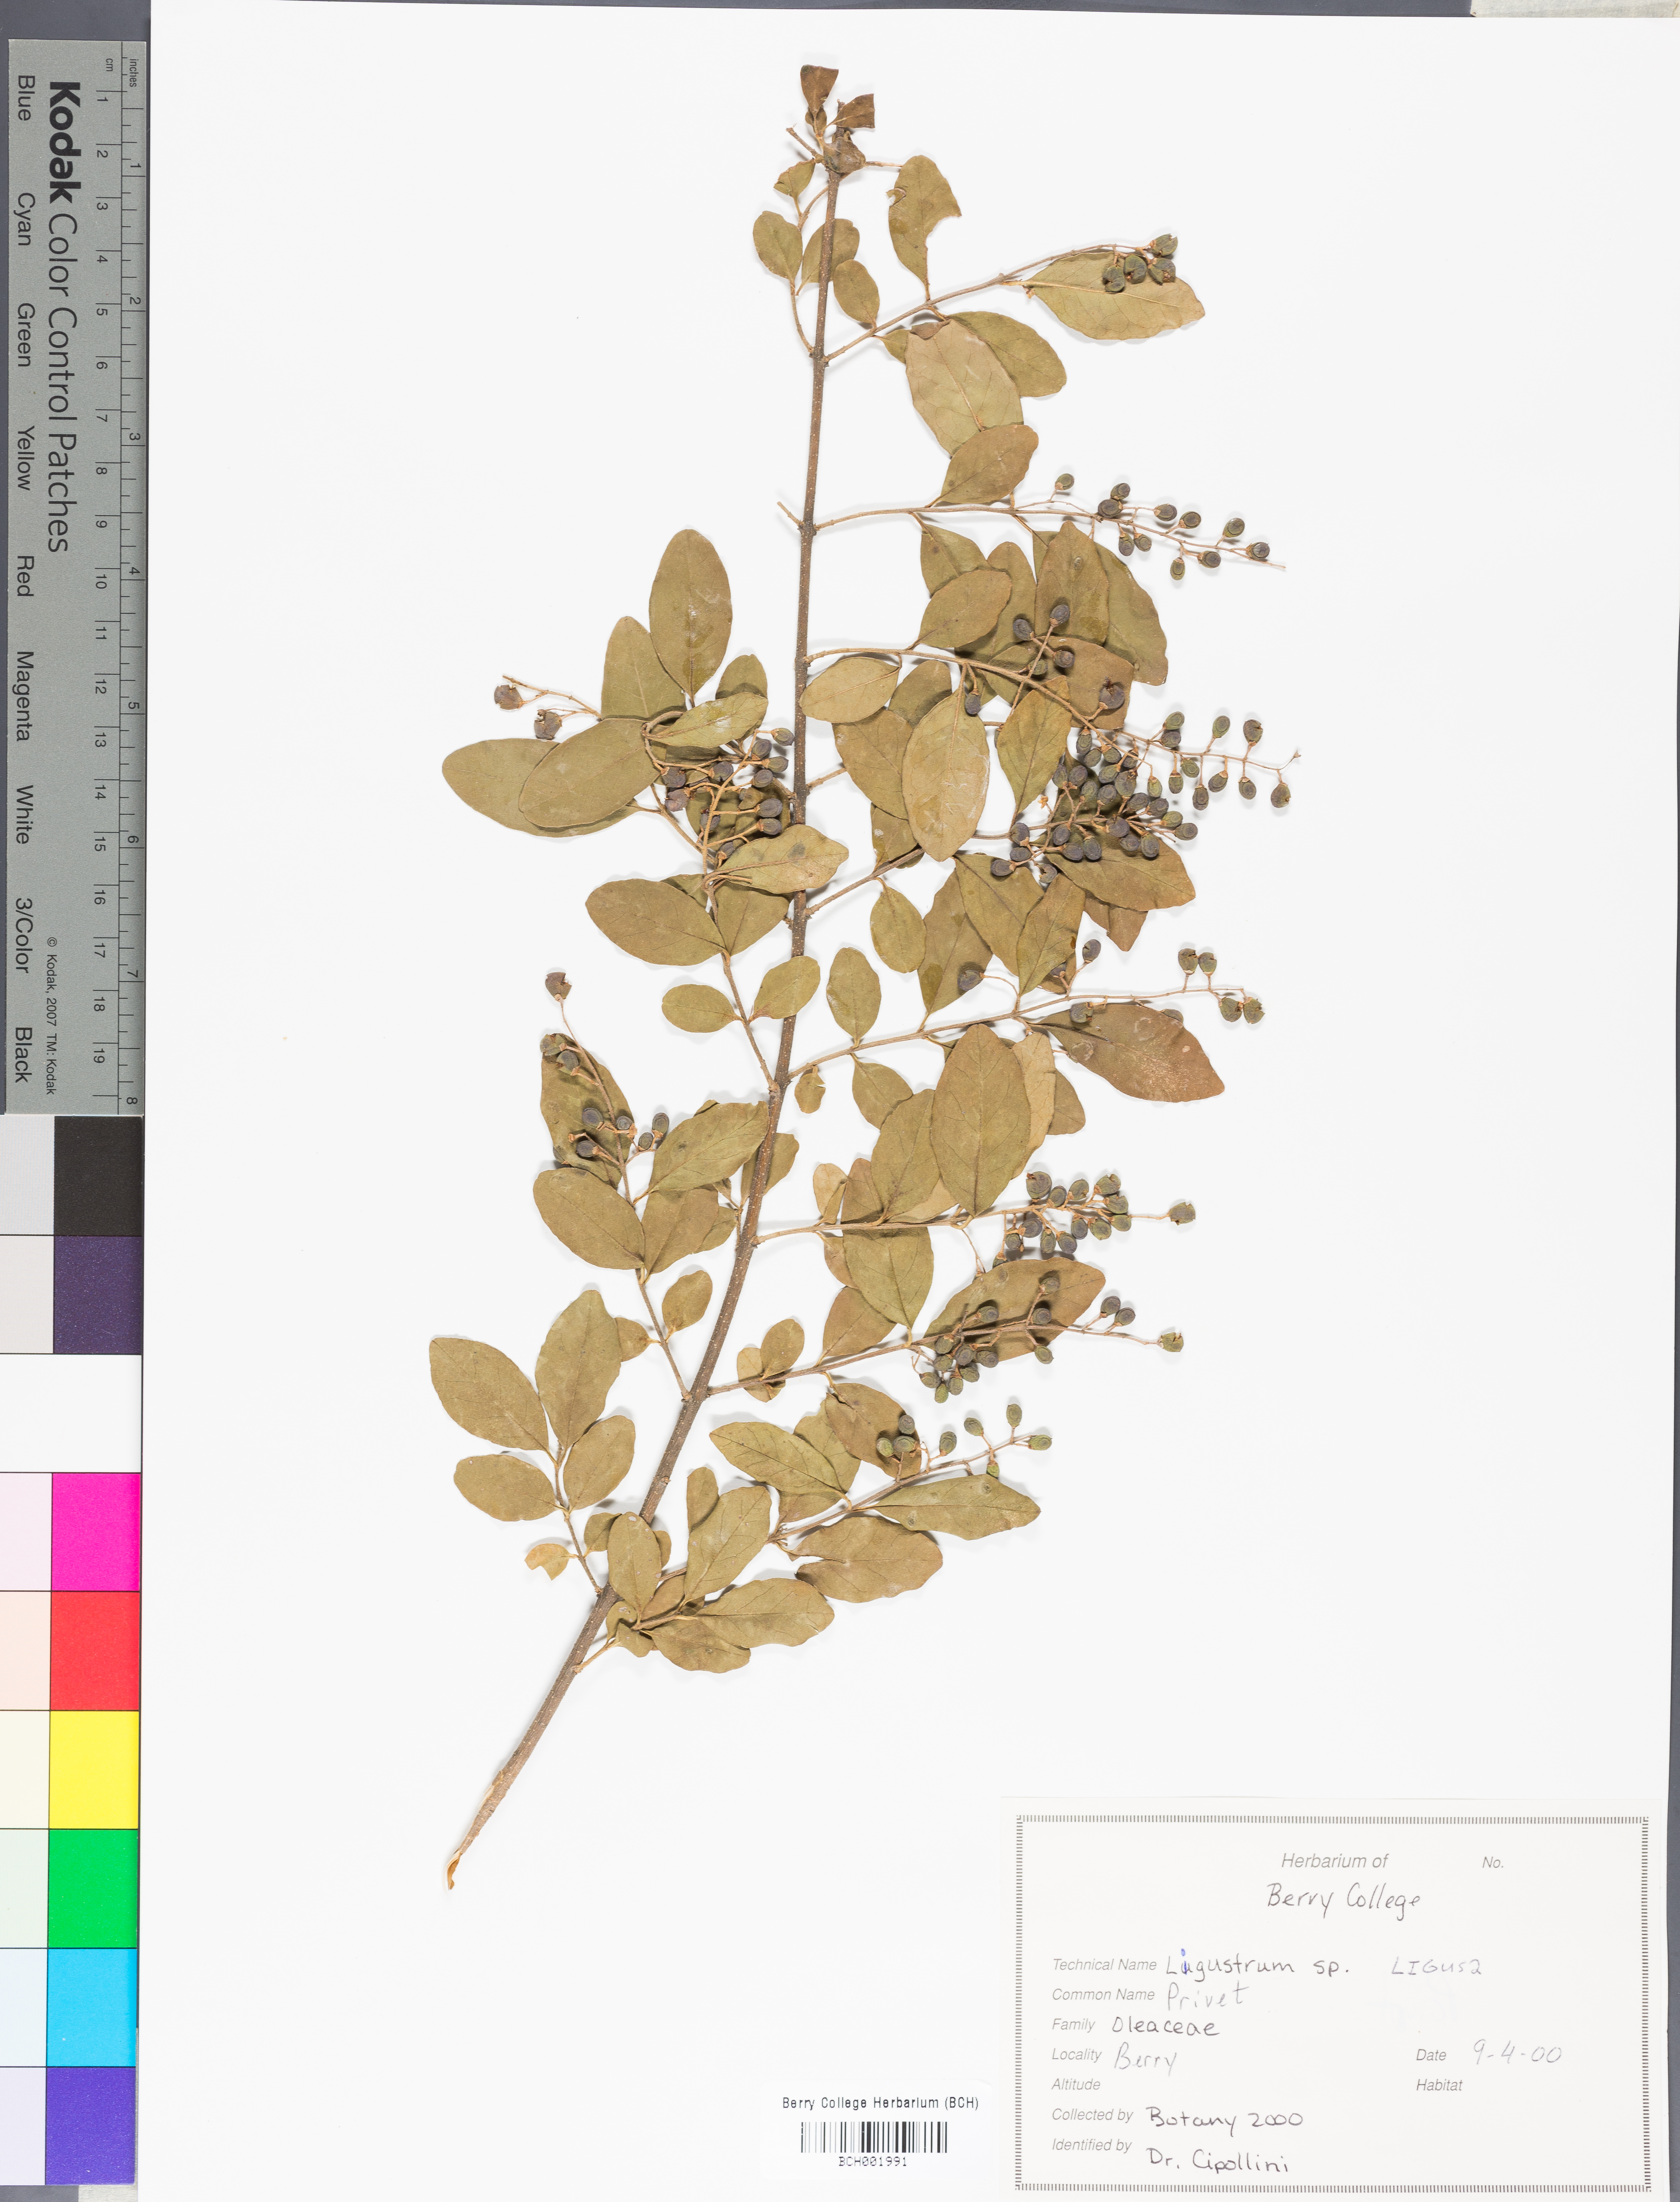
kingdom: Plantae
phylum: Tracheophyta
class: Magnoliopsida
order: Lamiales
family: Oleaceae
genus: Ligustrum
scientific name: Ligustrum
